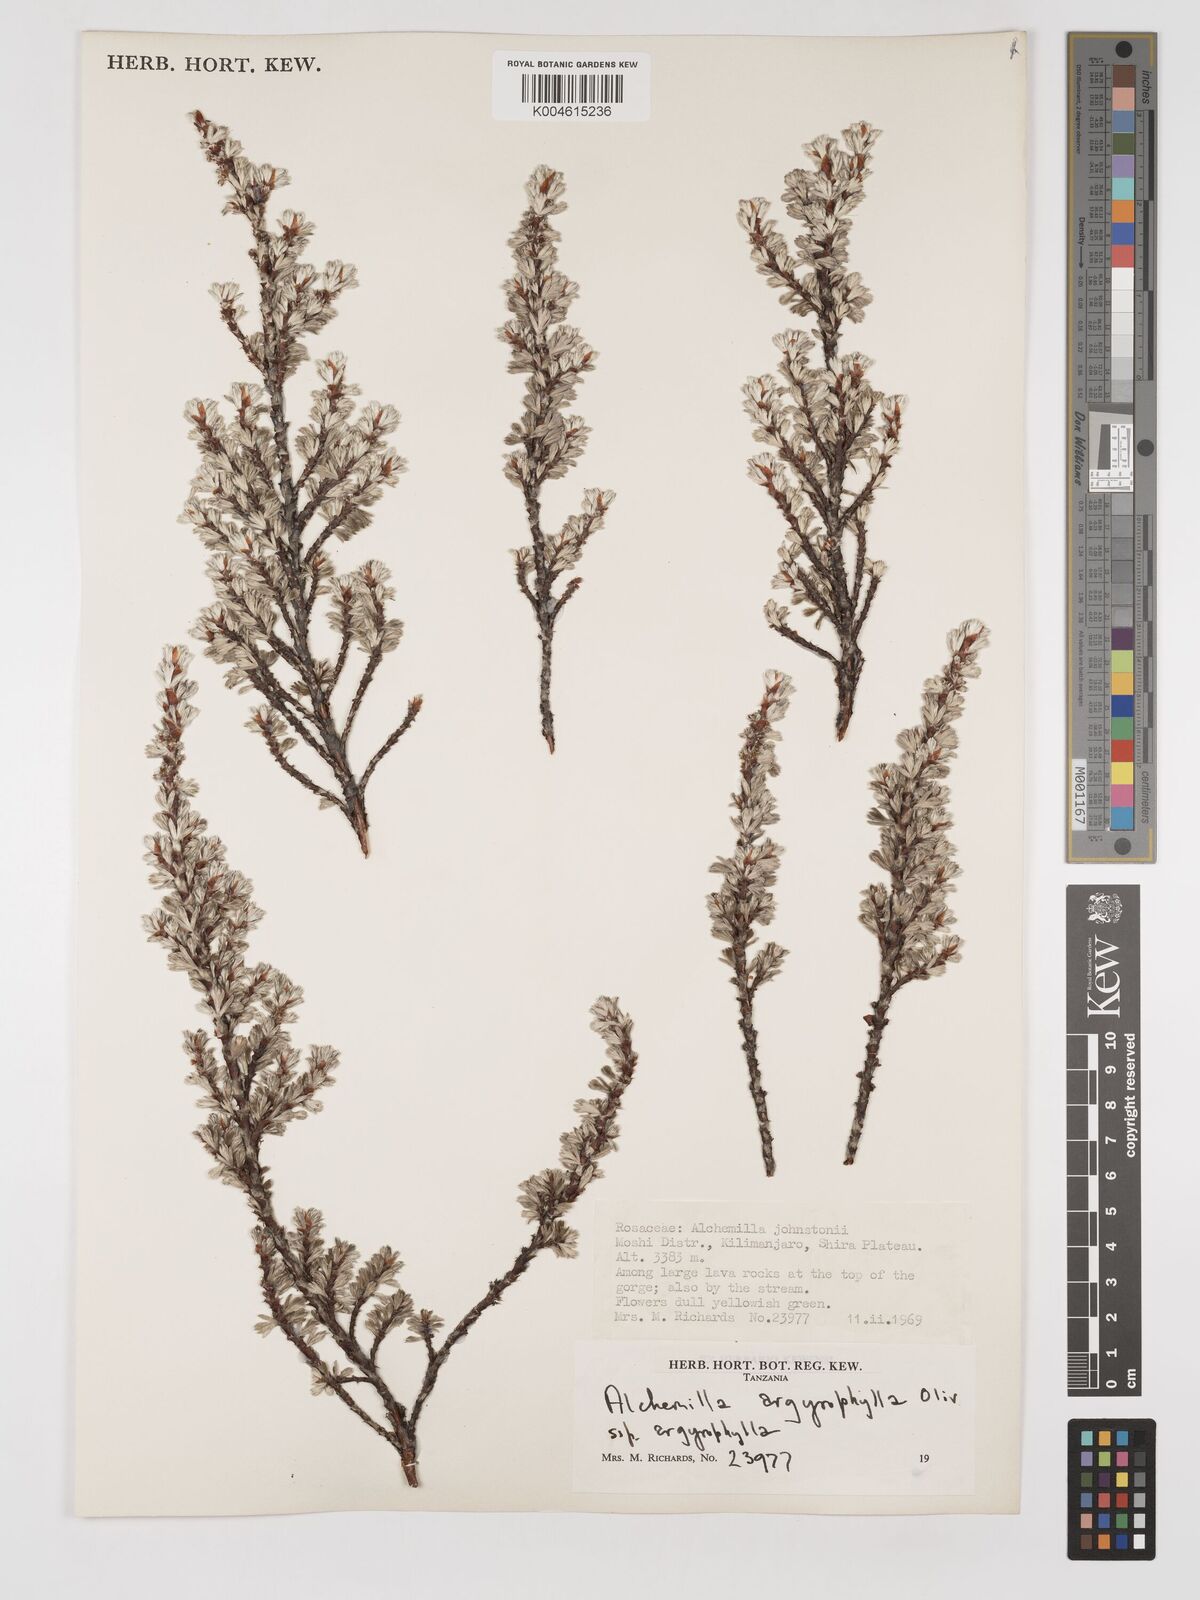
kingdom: Plantae
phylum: Tracheophyta
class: Magnoliopsida
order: Rosales
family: Rosaceae
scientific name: Rosaceae
